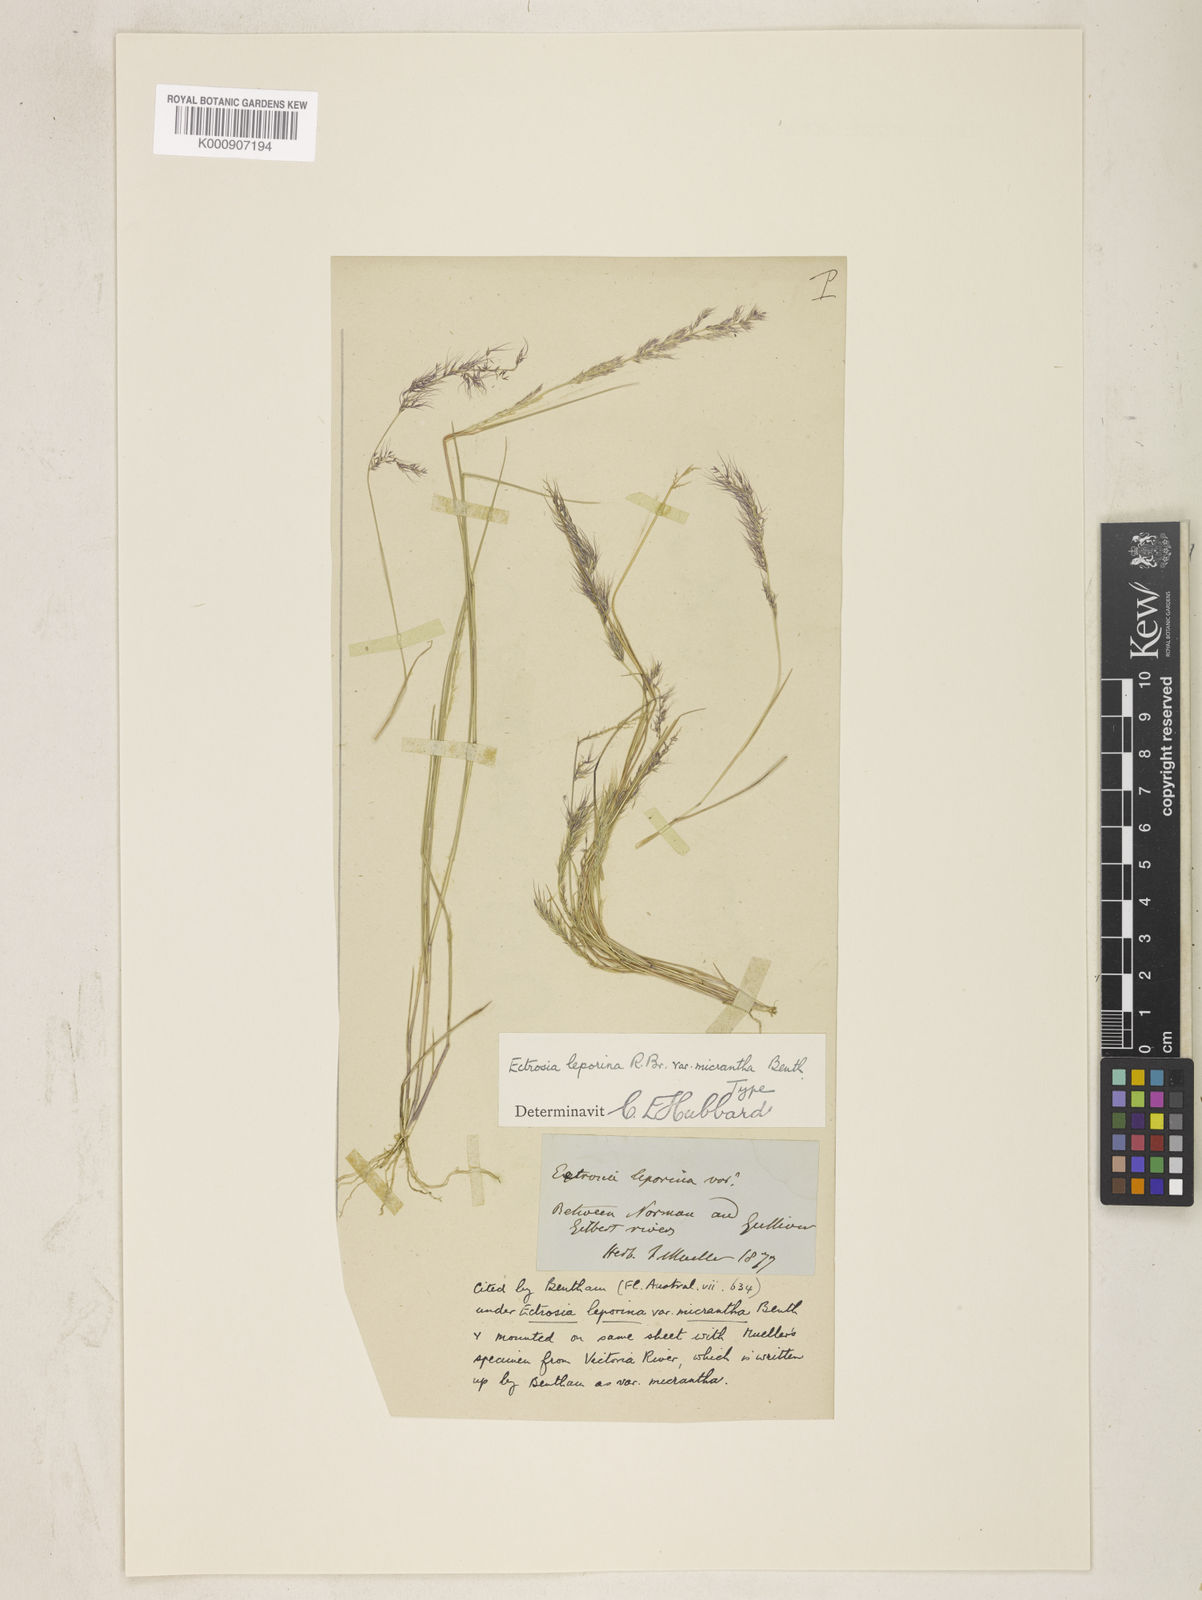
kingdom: Plantae
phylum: Tracheophyta
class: Liliopsida
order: Poales
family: Poaceae
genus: Eragrostis
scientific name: Eragrostis leporina
